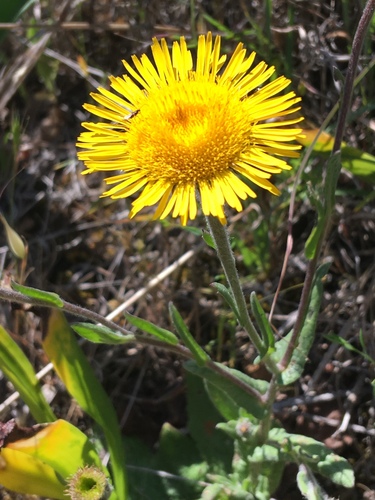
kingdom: Plantae
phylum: Tracheophyta
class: Magnoliopsida
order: Asterales
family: Asteraceae
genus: Pulicaria
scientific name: Pulicaria odora
